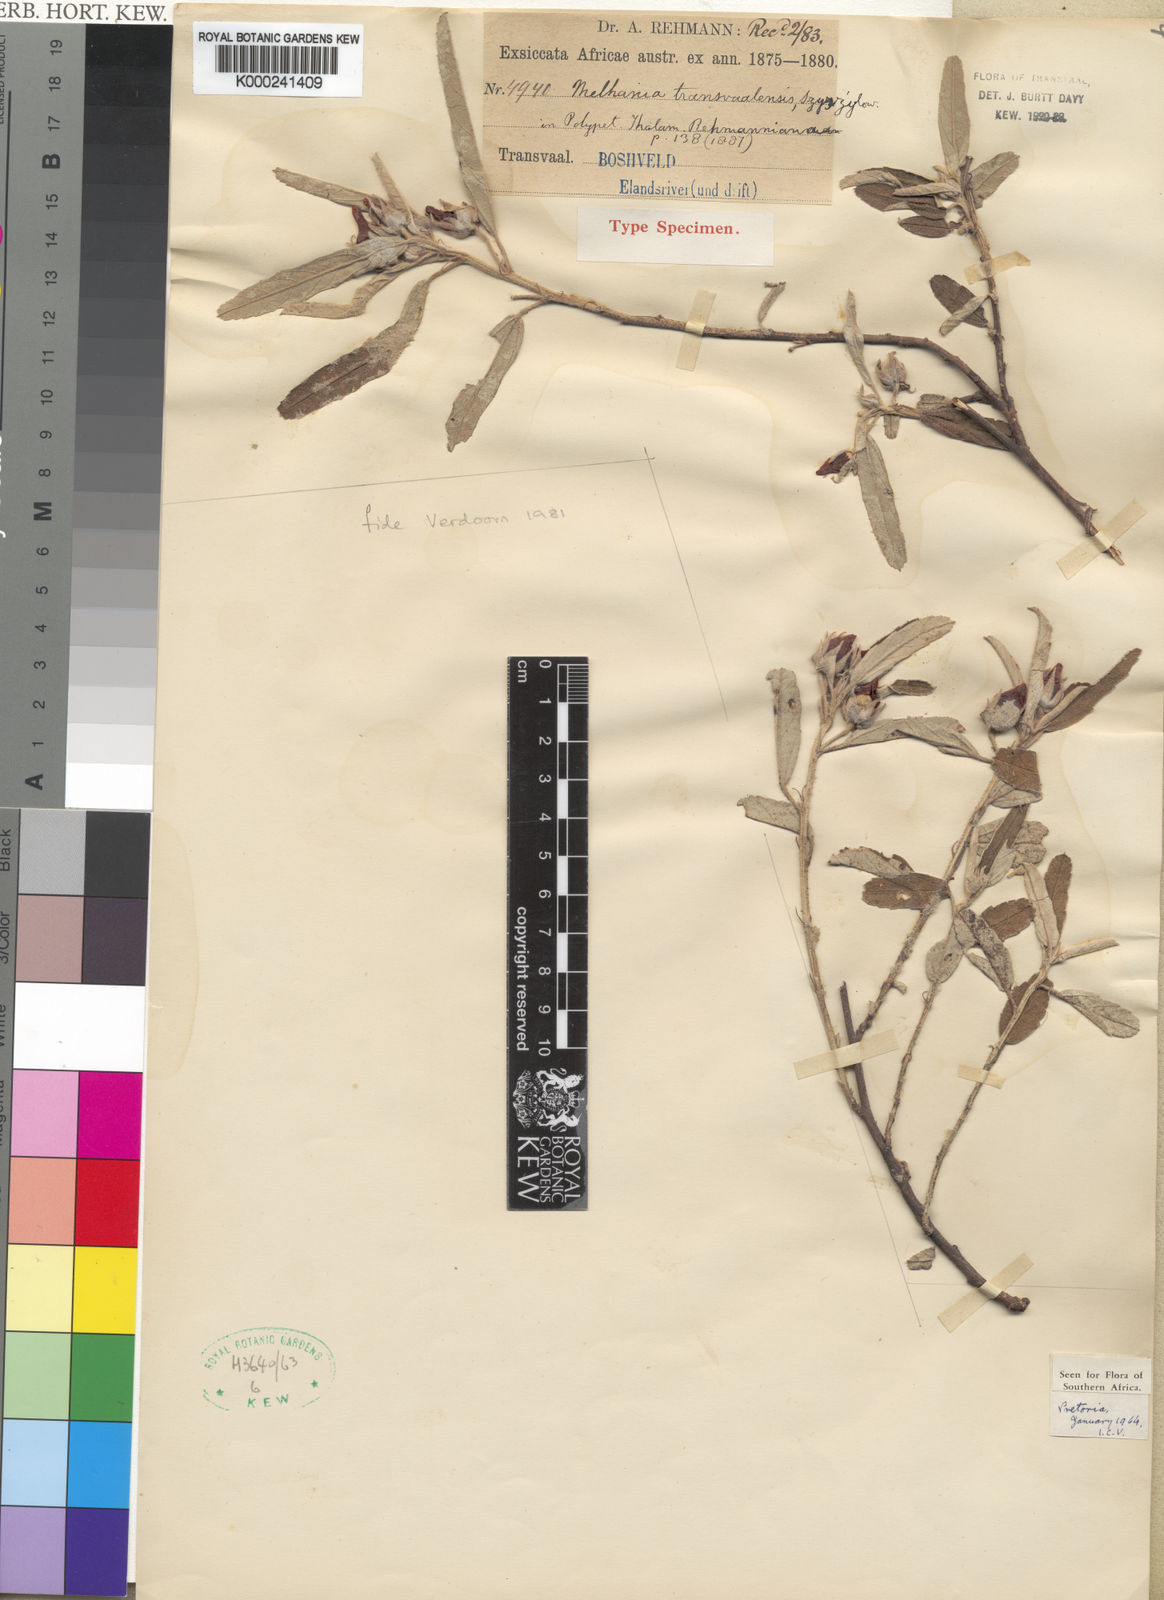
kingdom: Plantae
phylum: Tracheophyta
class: Magnoliopsida
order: Malvales
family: Malvaceae
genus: Melhania
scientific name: Melhania transvaalensis
